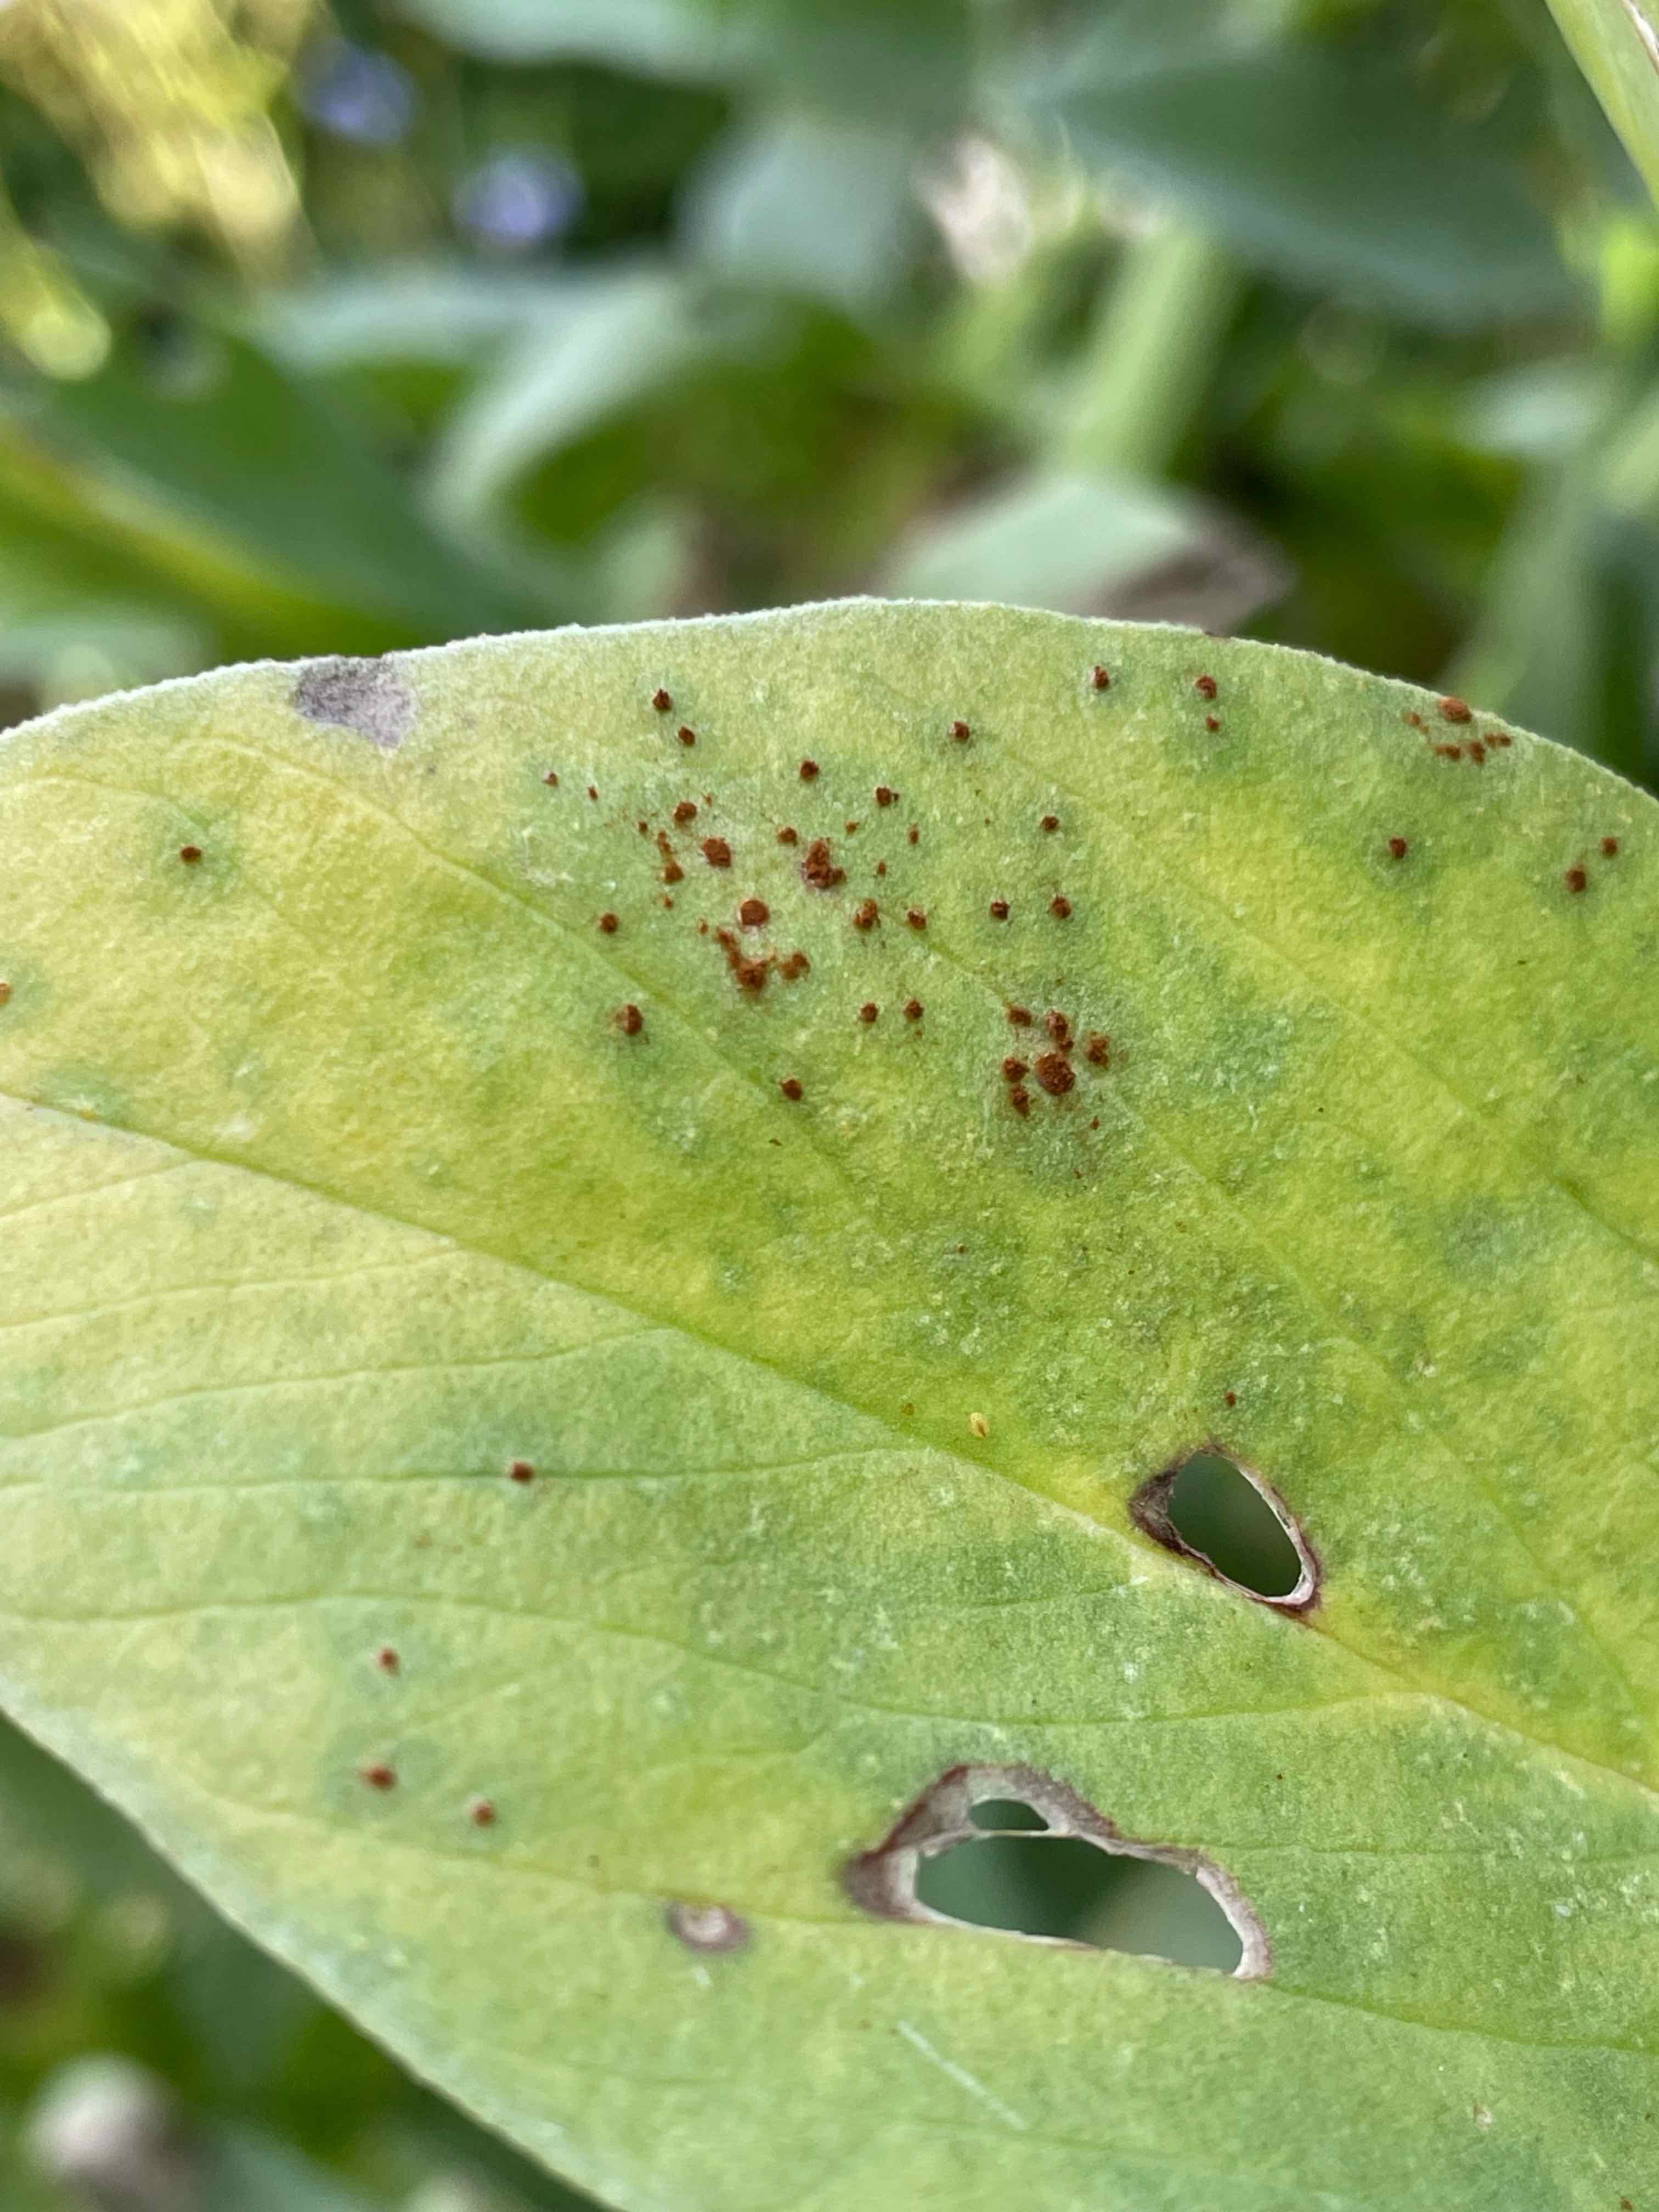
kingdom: Fungi
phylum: Basidiomycota
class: Pucciniomycetes
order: Pucciniales
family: Pucciniaceae
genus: Uromyces
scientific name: Uromyces viciae-fabae
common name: Broad bean rust
